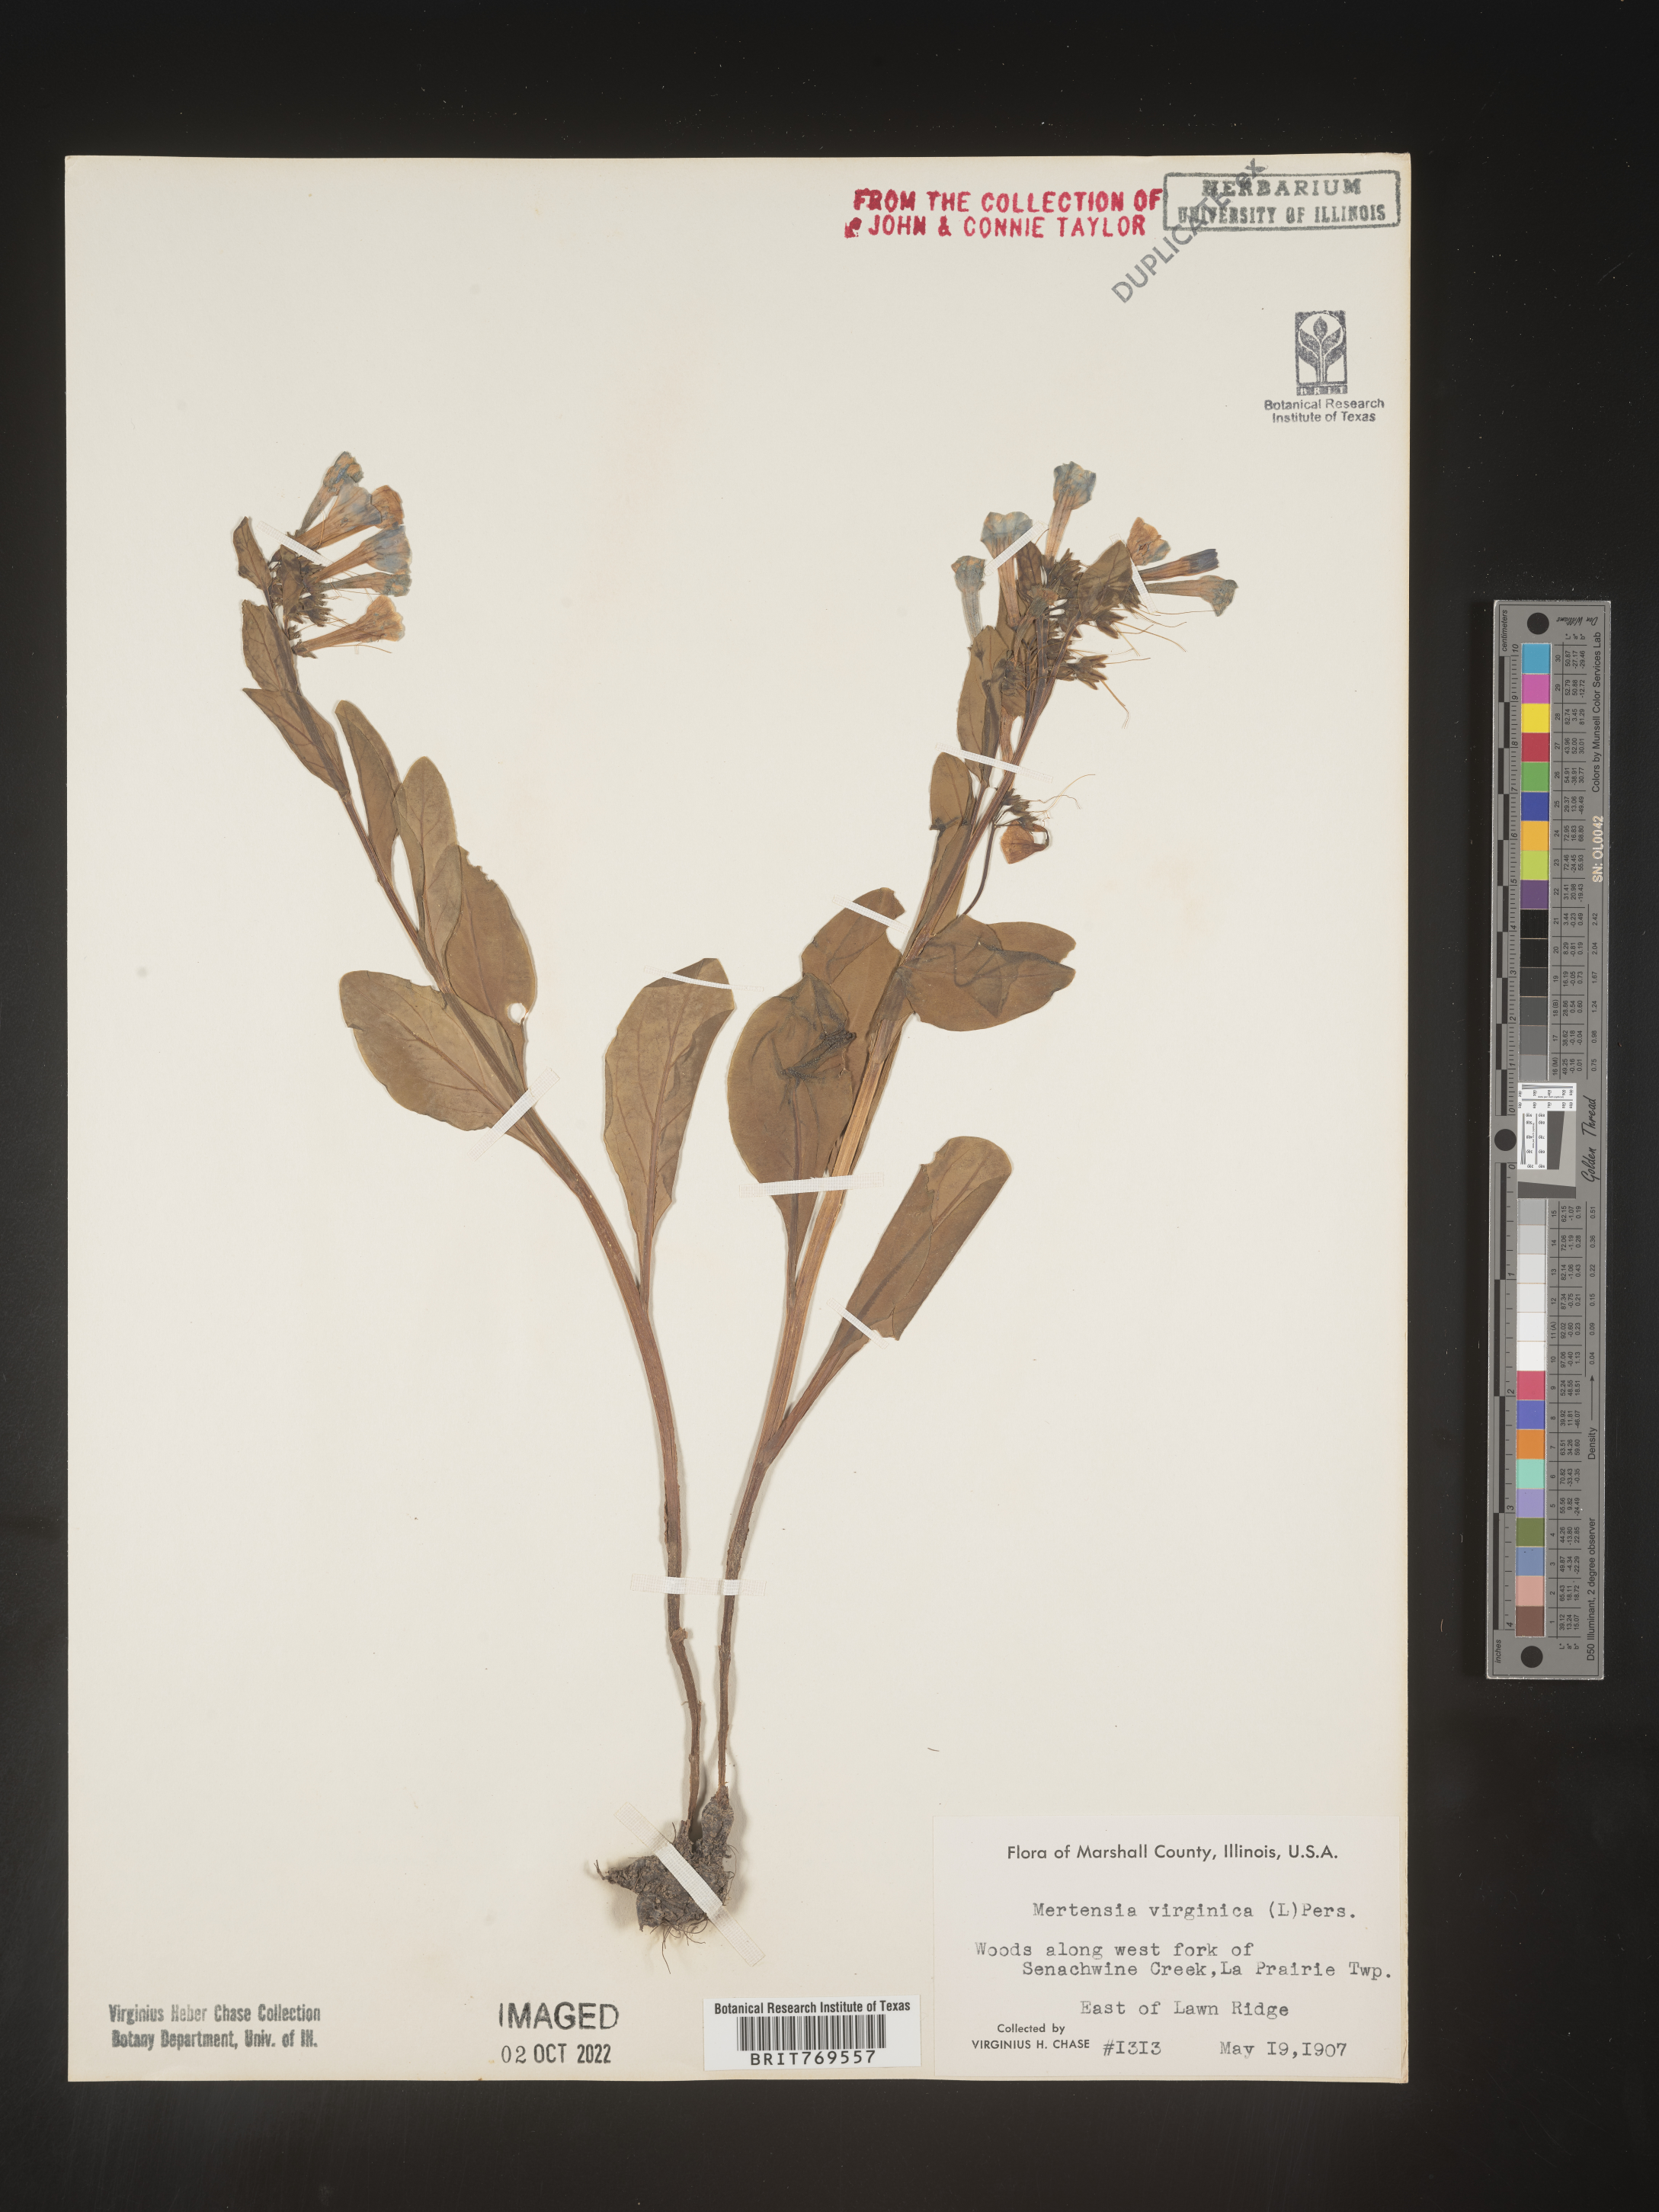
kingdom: Plantae
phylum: Tracheophyta
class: Magnoliopsida
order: Boraginales
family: Boraginaceae
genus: Mertensia
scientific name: Mertensia virginica
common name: Virginia bluebells
